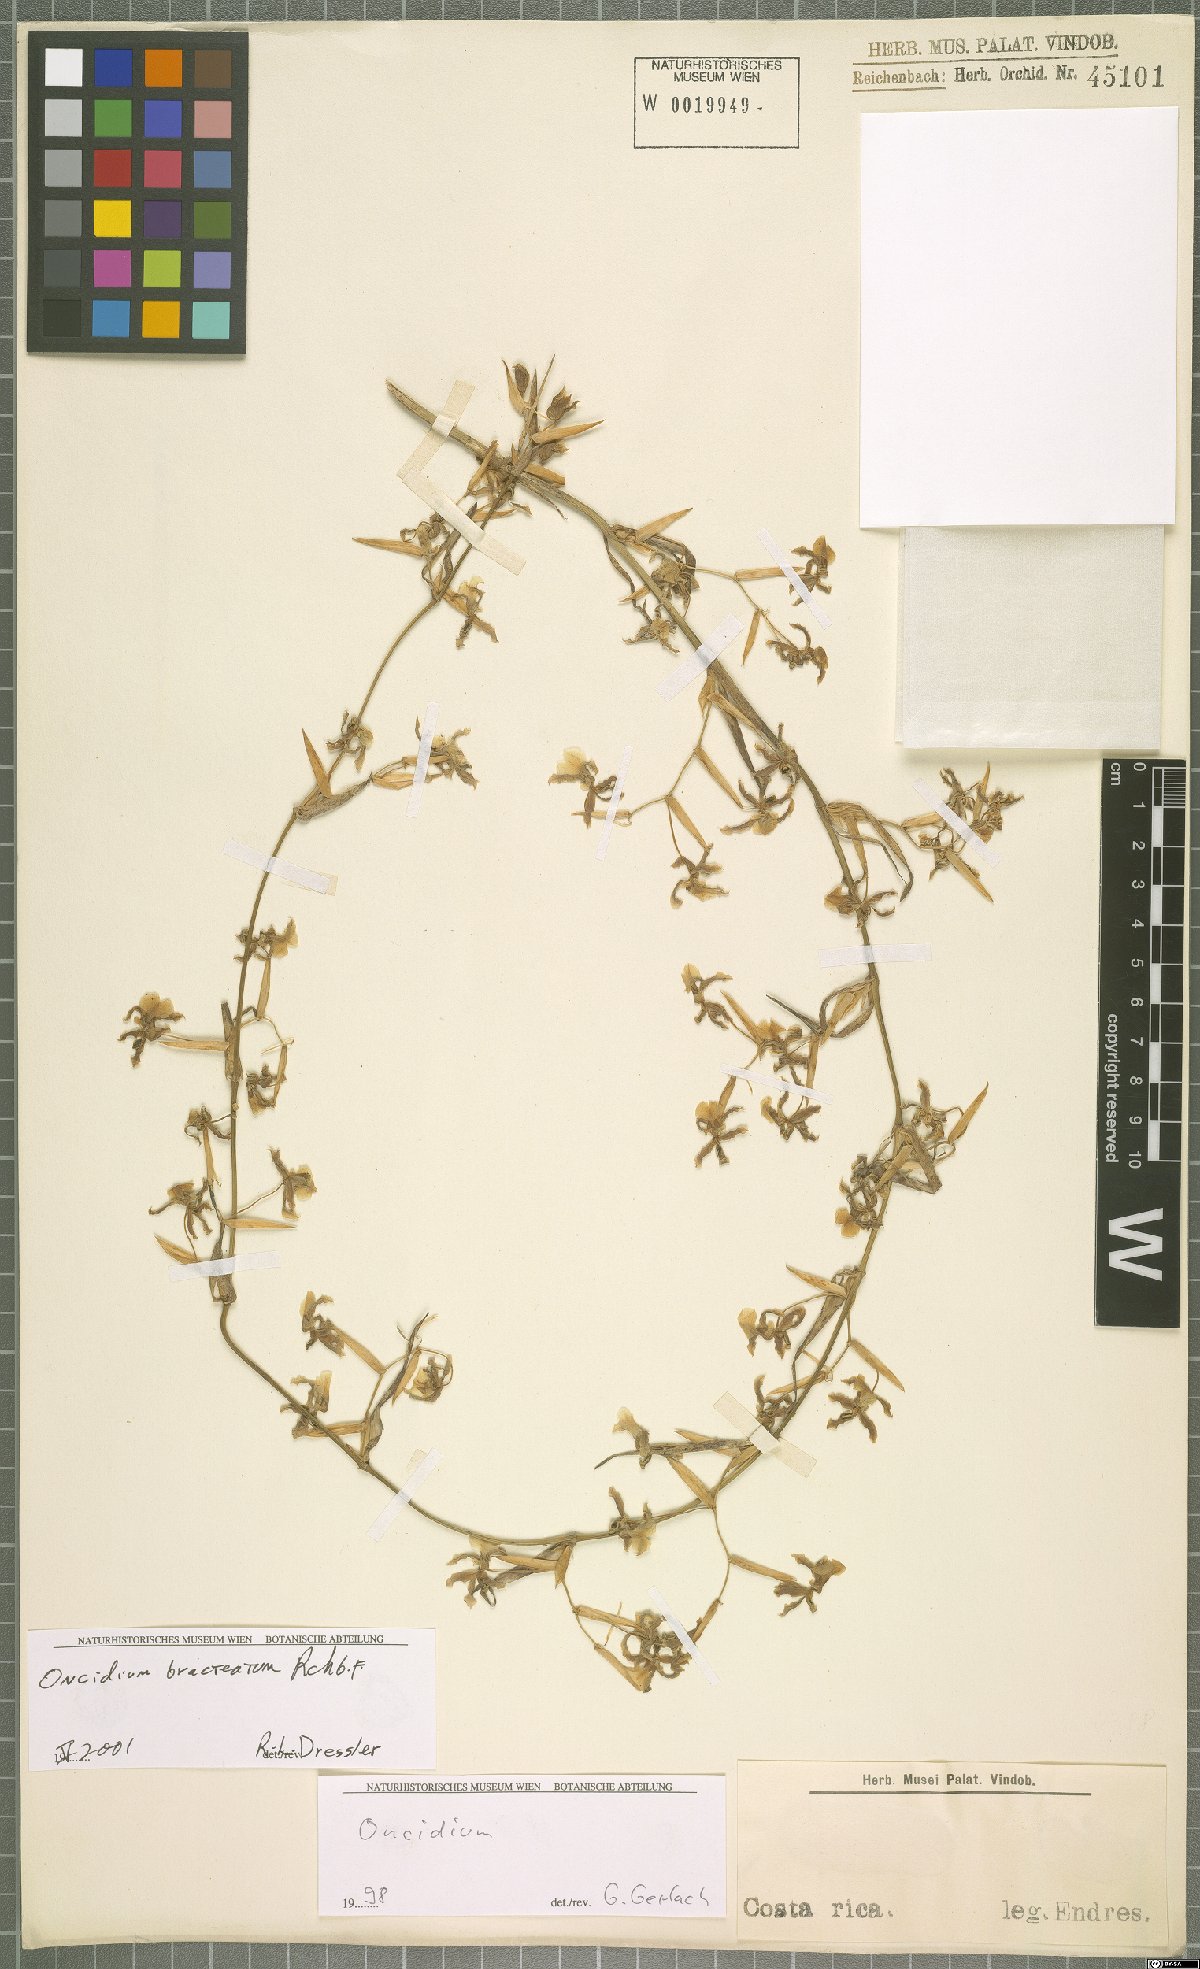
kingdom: Plantae
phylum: Tracheophyta
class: Liliopsida
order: Asparagales
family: Orchidaceae
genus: Oncidium
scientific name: Oncidium bracteatum
